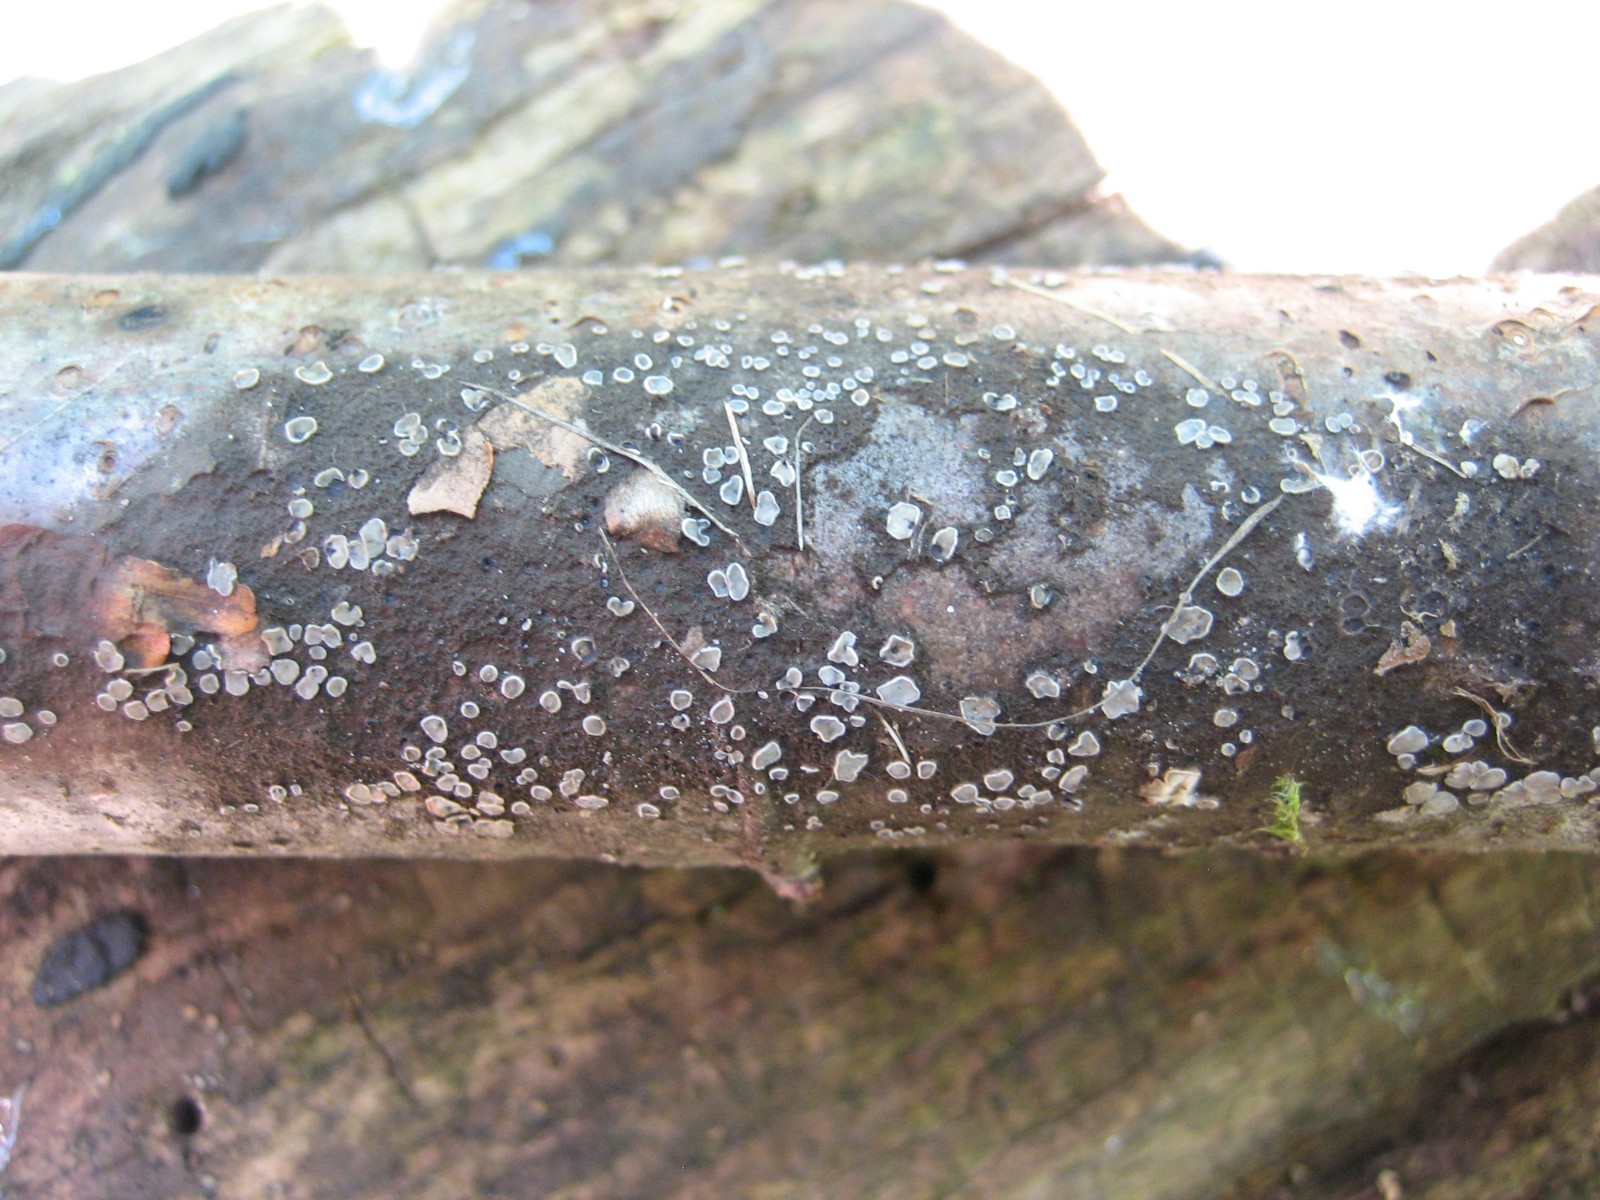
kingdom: Fungi
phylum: Ascomycota
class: Leotiomycetes
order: Helotiales
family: Mollisiaceae
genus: Mollisia
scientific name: Mollisia
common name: gråskive
